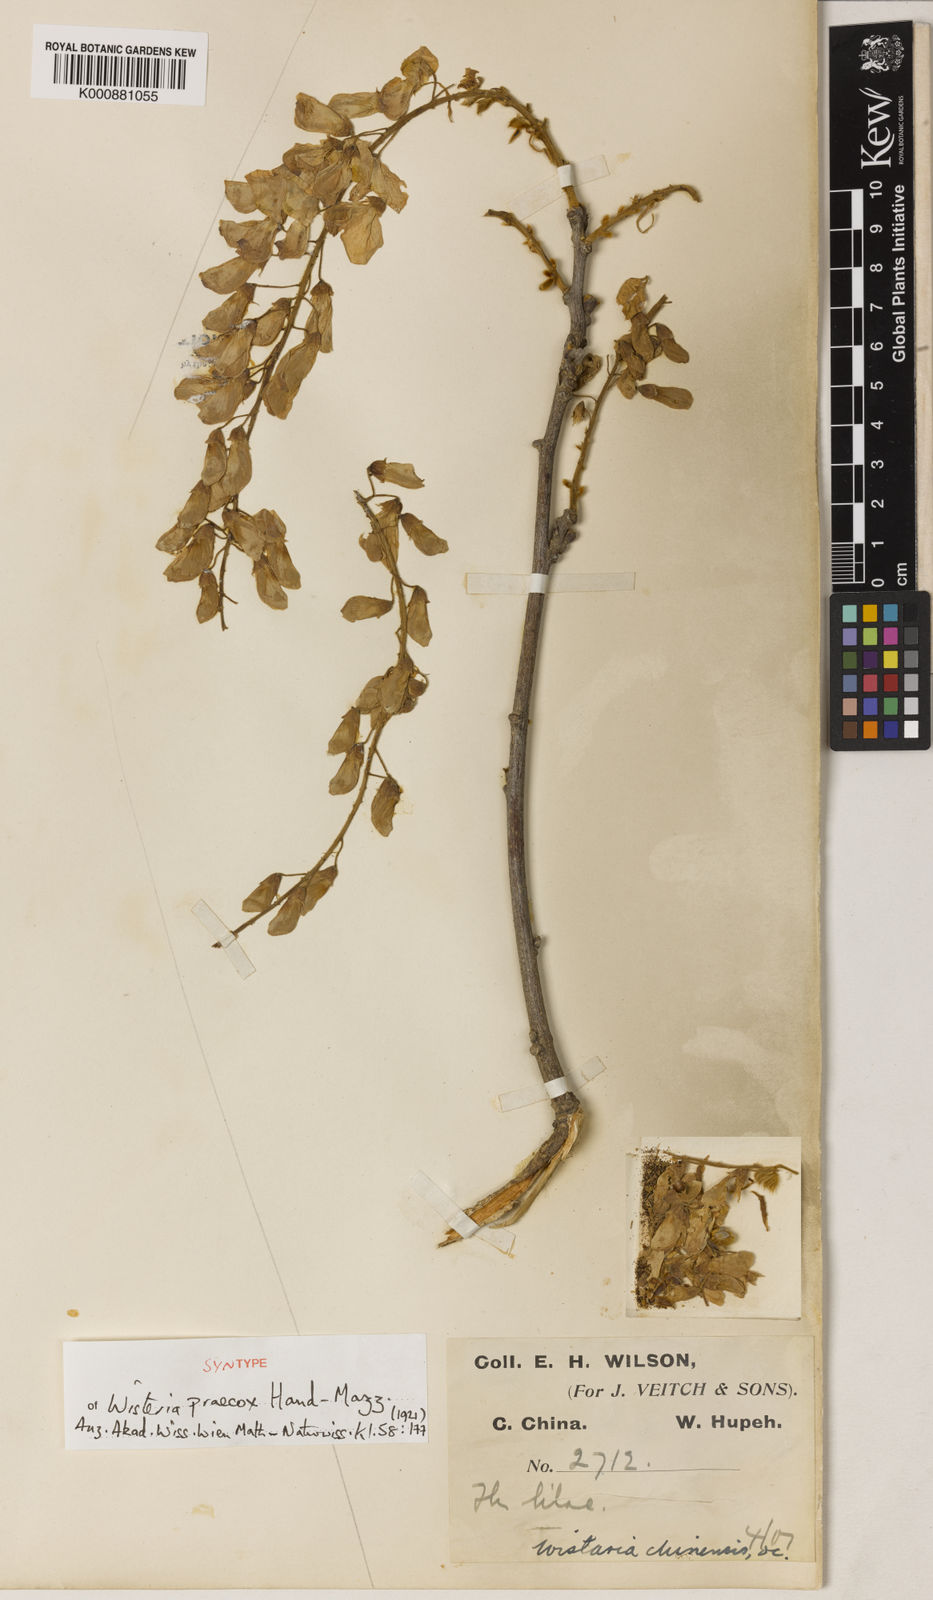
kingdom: Plantae
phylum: Tracheophyta
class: Magnoliopsida
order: Fabales
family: Fabaceae
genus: Wisteria
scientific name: Wisteria sinensis
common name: Chinese wisteria
